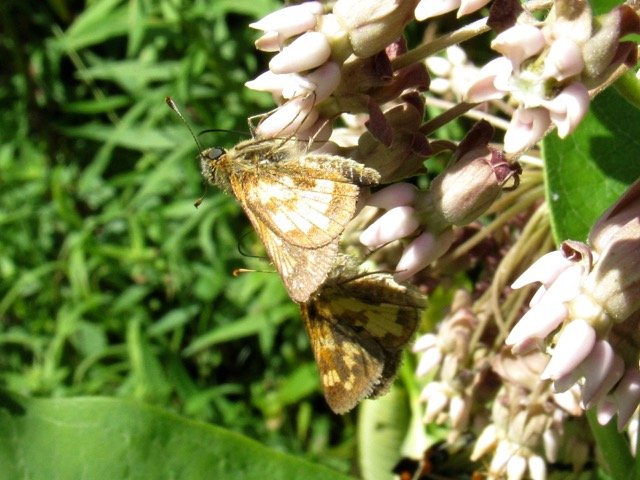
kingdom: Animalia
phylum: Arthropoda
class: Insecta
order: Lepidoptera
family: Hesperiidae
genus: Polites
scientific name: Polites coras
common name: Peck's Skipper
